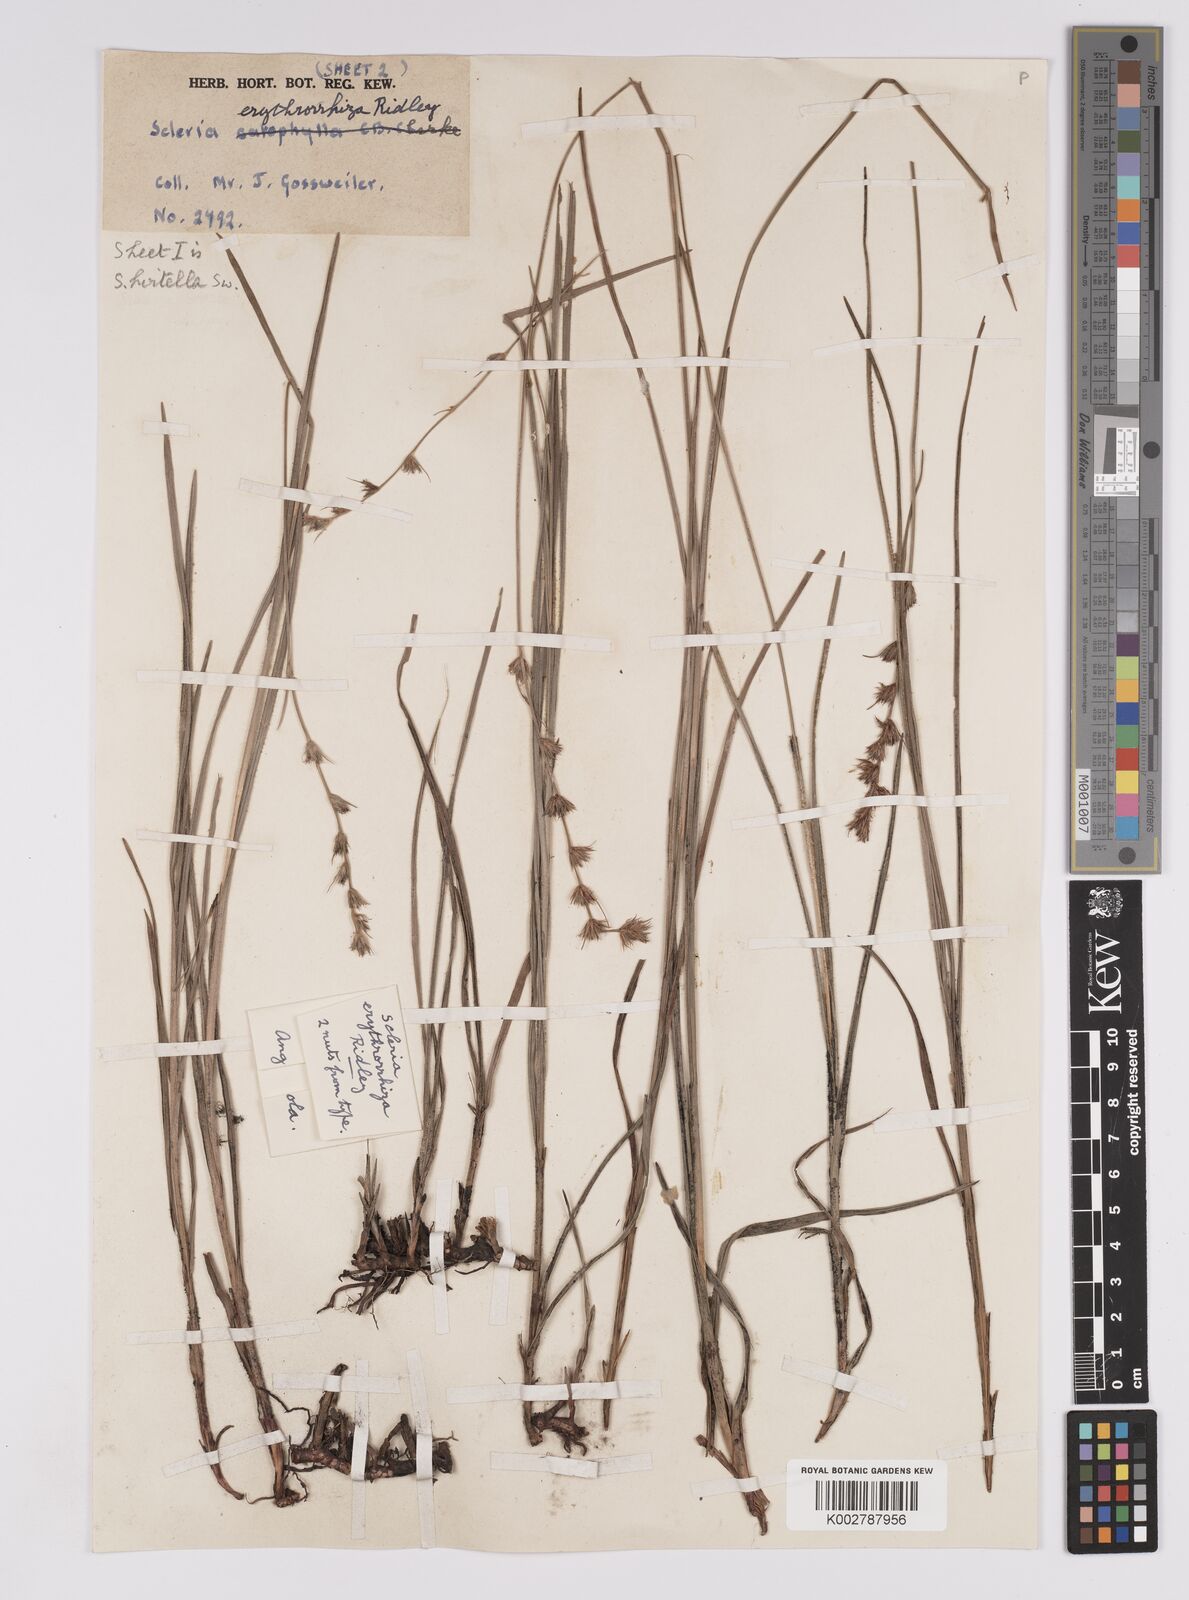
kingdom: Plantae
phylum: Tracheophyta
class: Liliopsida
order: Poales
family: Cyperaceae
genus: Scleria
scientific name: Scleria erythrorrhiza
